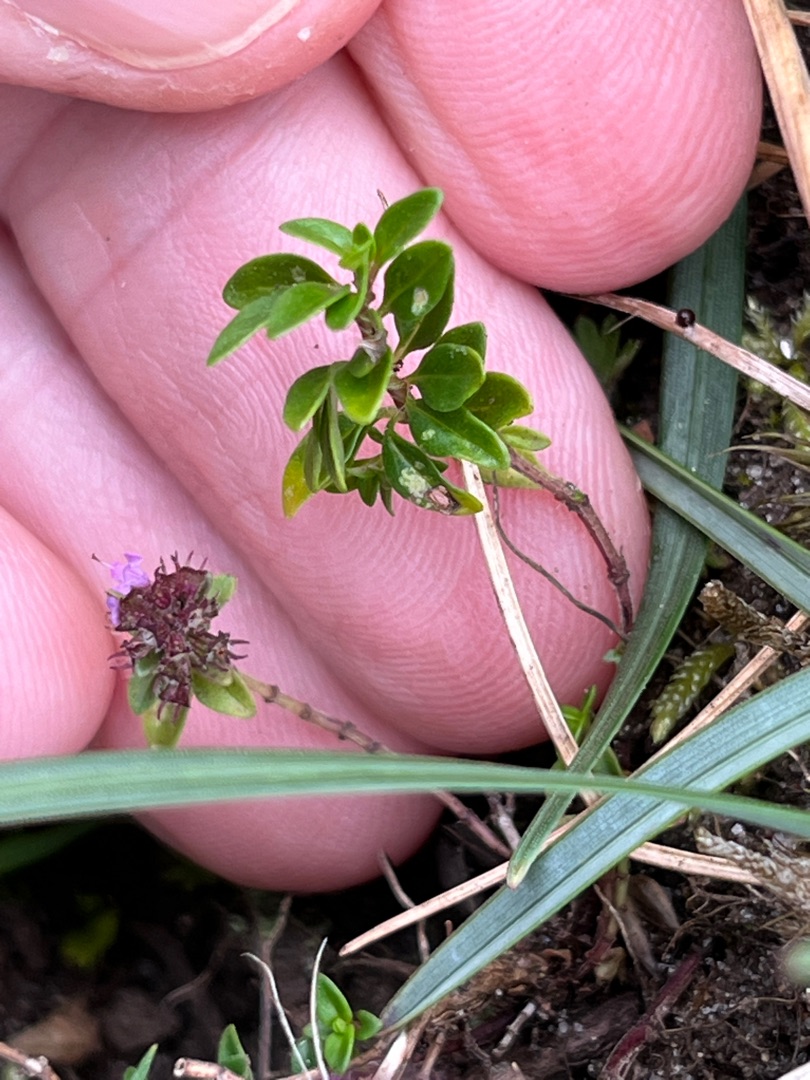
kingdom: Plantae
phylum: Tracheophyta
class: Magnoliopsida
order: Lamiales
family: Lamiaceae
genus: Thymus
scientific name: Thymus pulegioides
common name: Bredbladet timian
